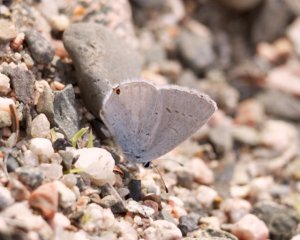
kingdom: Animalia
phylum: Arthropoda
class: Insecta
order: Lepidoptera
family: Lycaenidae
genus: Elkalyce
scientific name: Elkalyce amyntula
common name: Western Tailed-Blue
